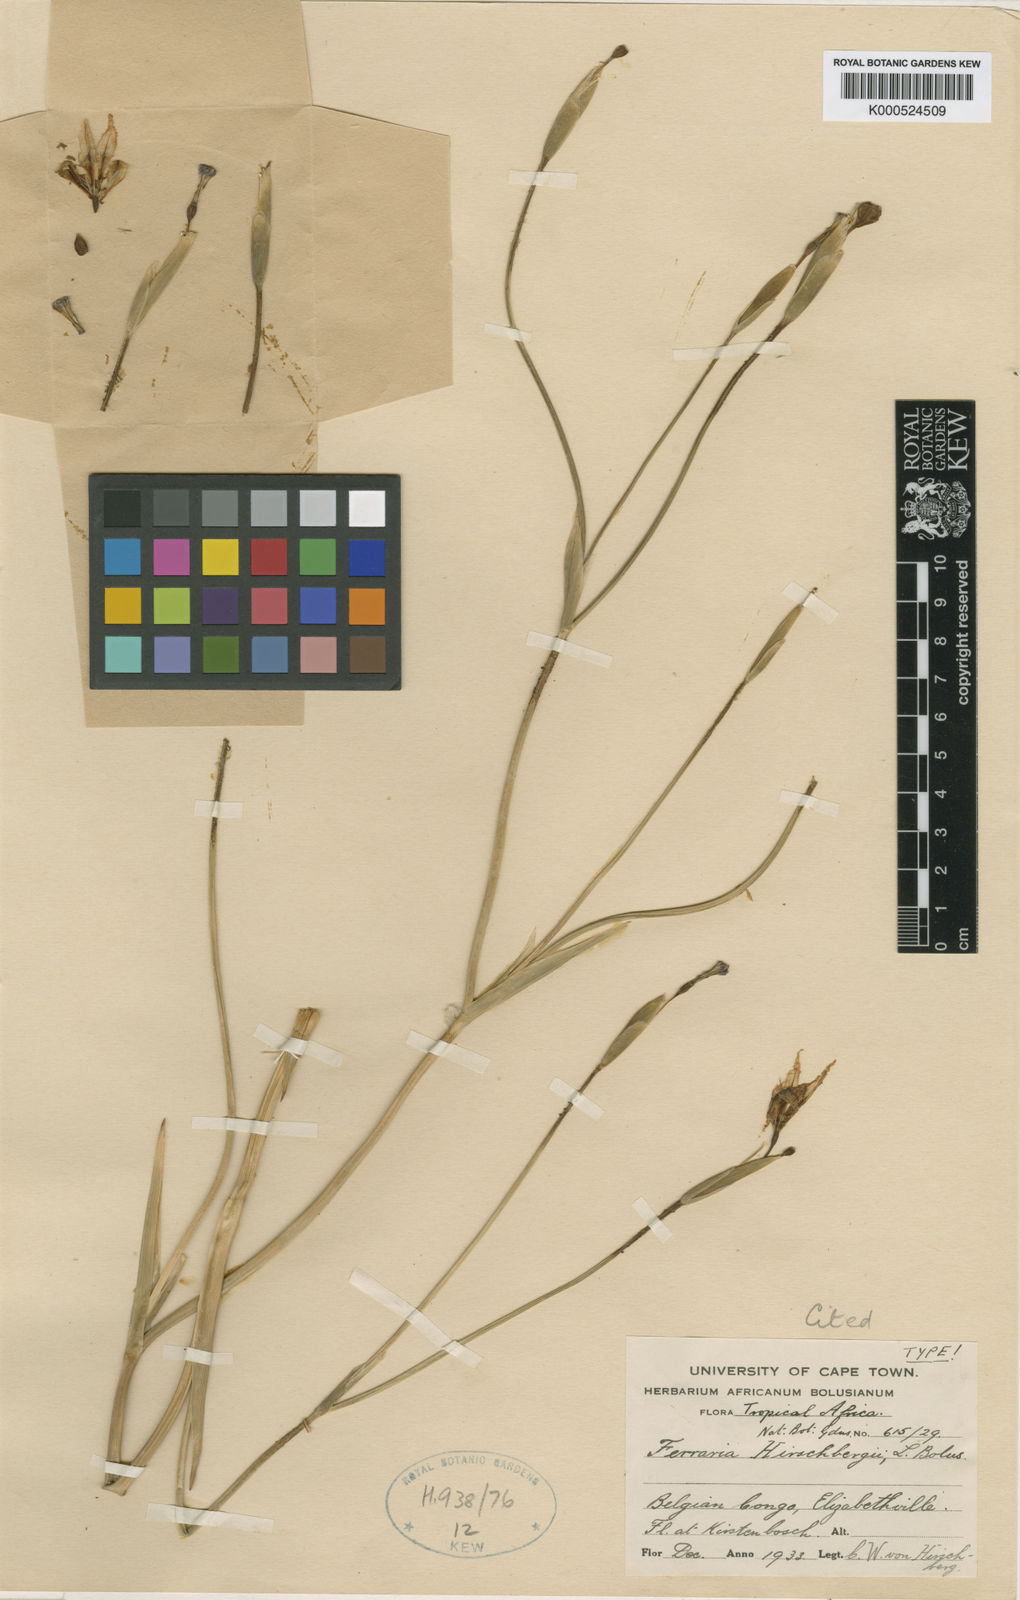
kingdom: Plantae
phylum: Tracheophyta
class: Liliopsida
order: Asparagales
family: Iridaceae
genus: Ferraria
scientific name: Ferraria glutinosa
